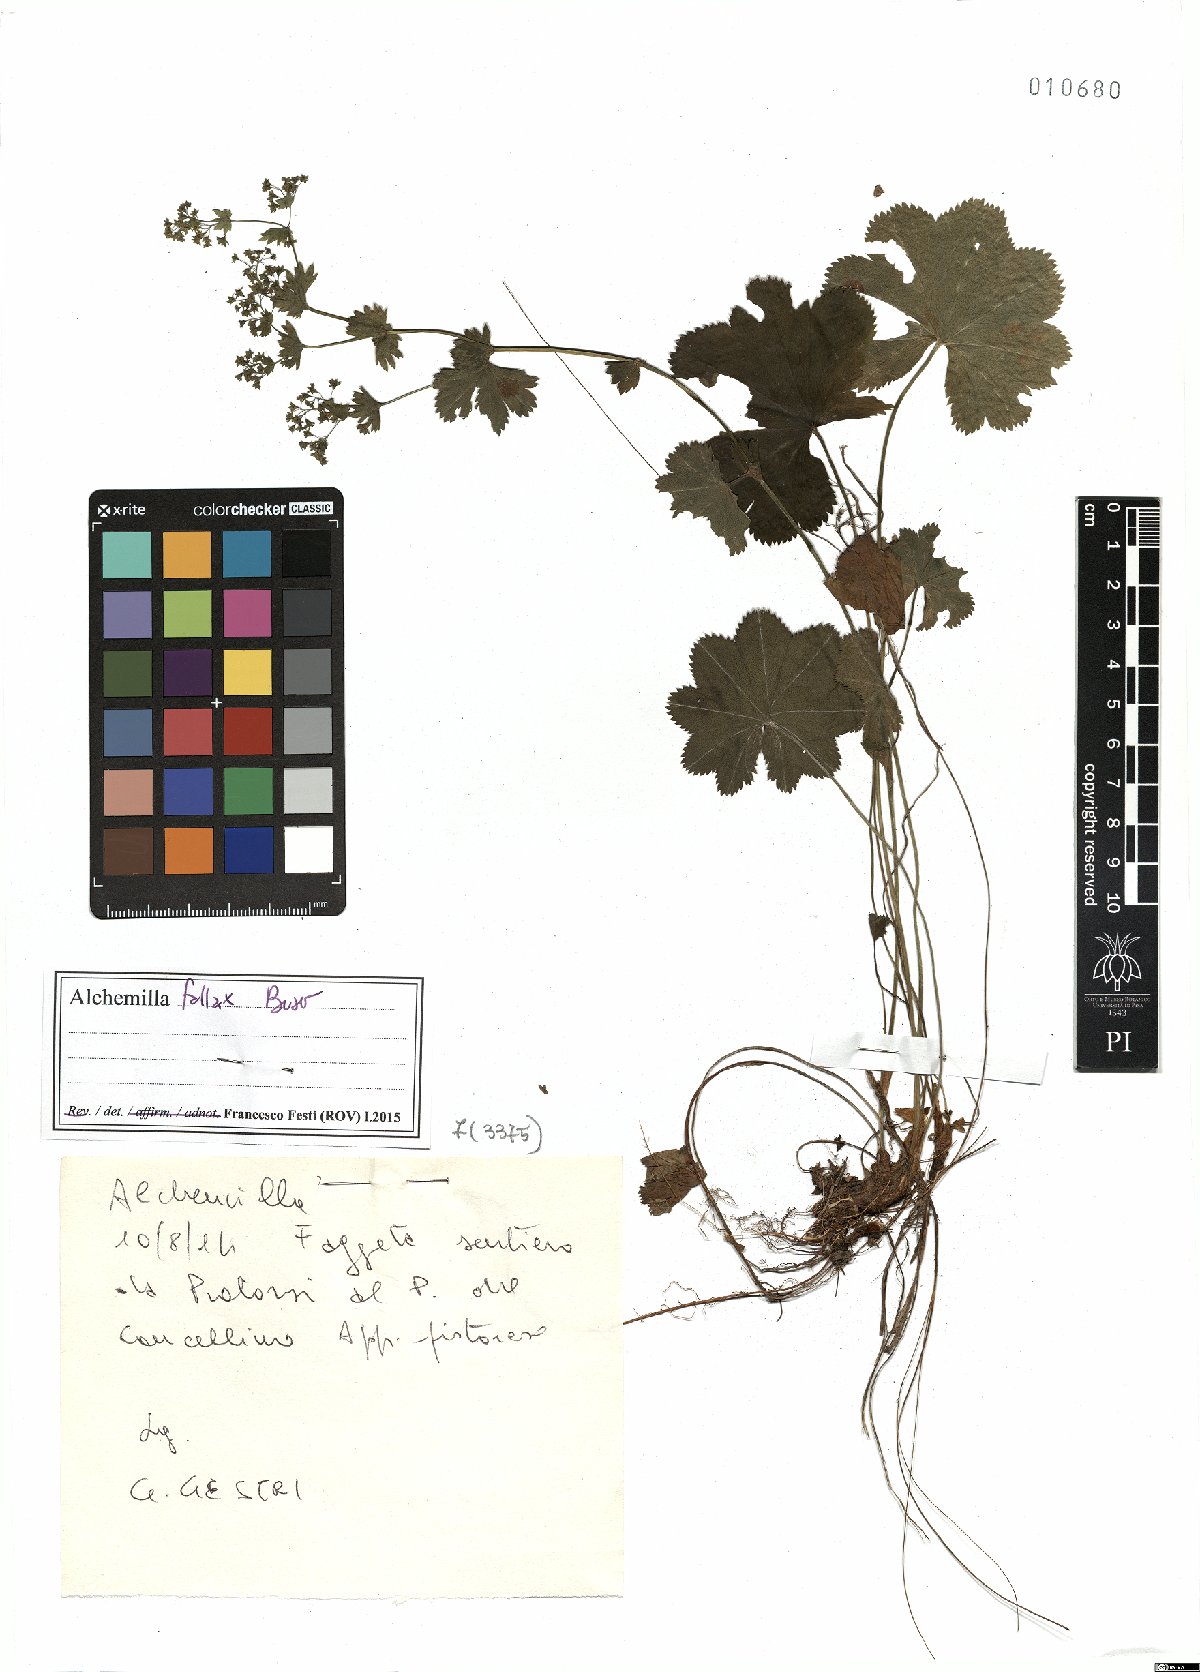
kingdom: Plantae
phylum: Tracheophyta
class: Magnoliopsida
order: Rosales
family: Rosaceae
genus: Alchemilla
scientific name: Alchemilla fallax
